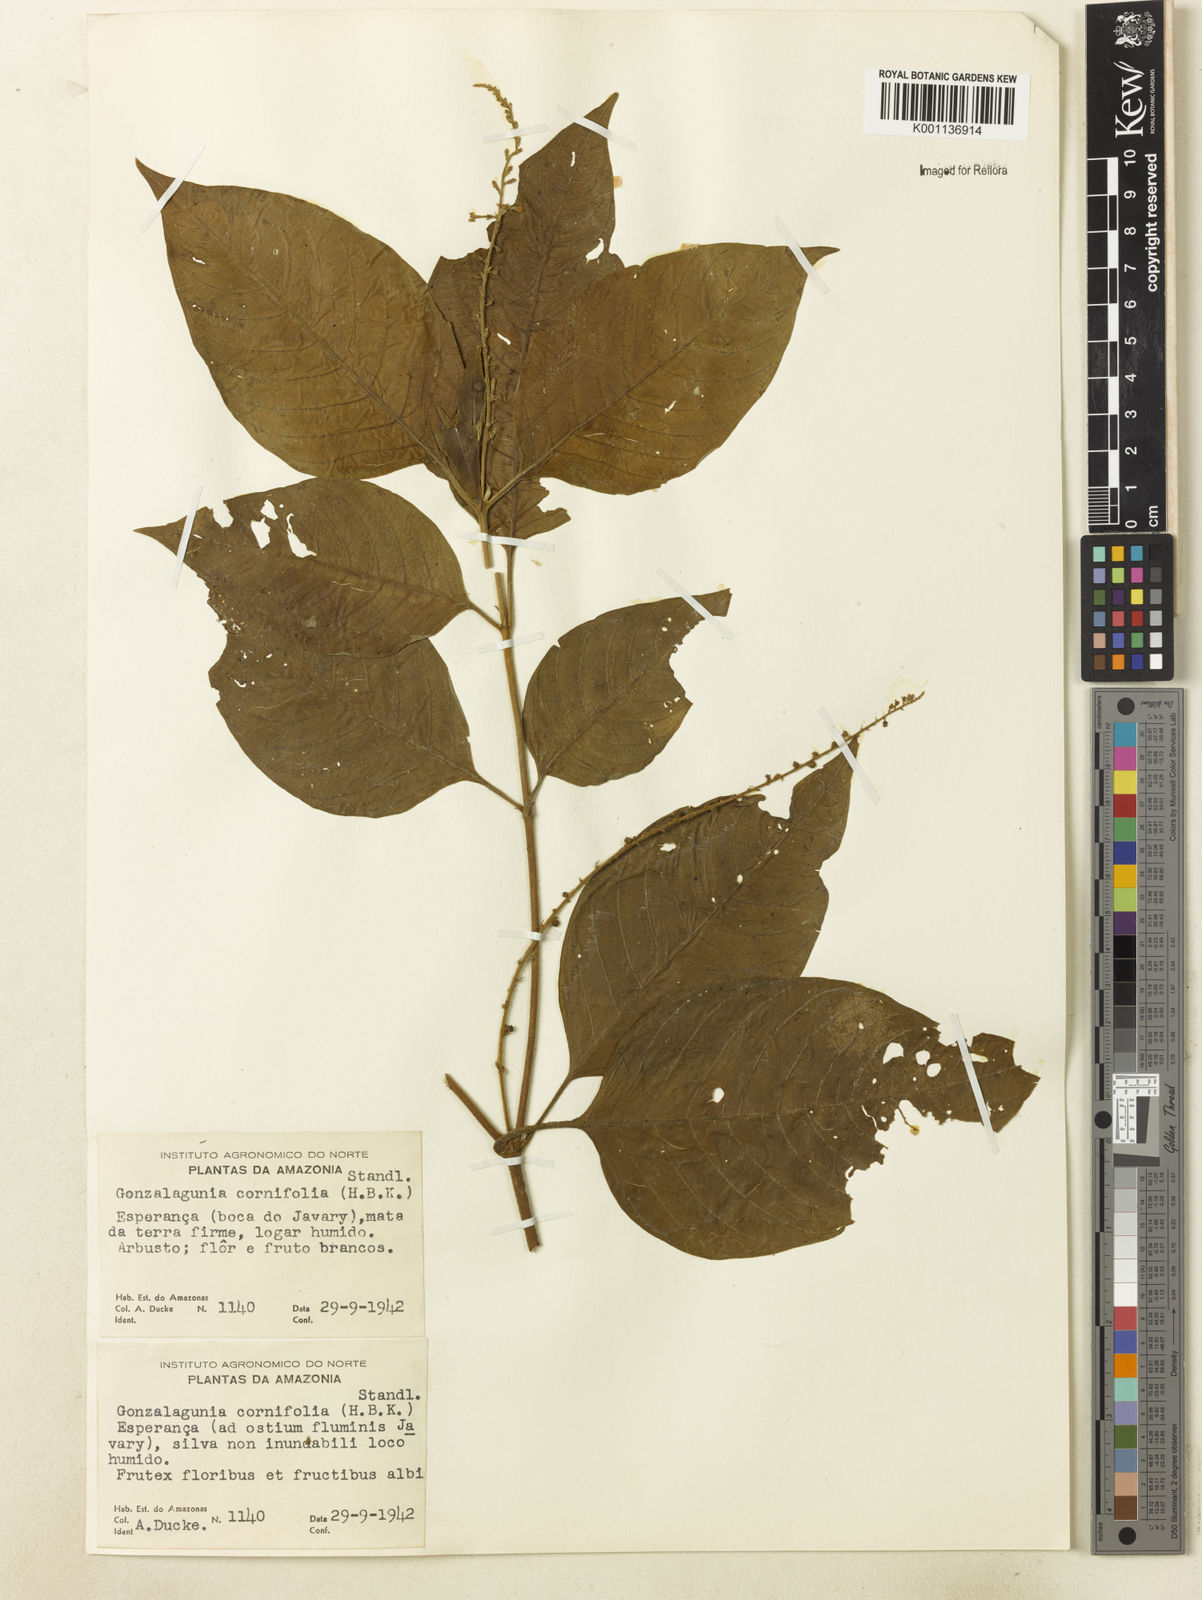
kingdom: Plantae
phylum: Tracheophyta
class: Magnoliopsida
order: Gentianales
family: Rubiaceae
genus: Gonzalagunia
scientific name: Gonzalagunia cornifolia
